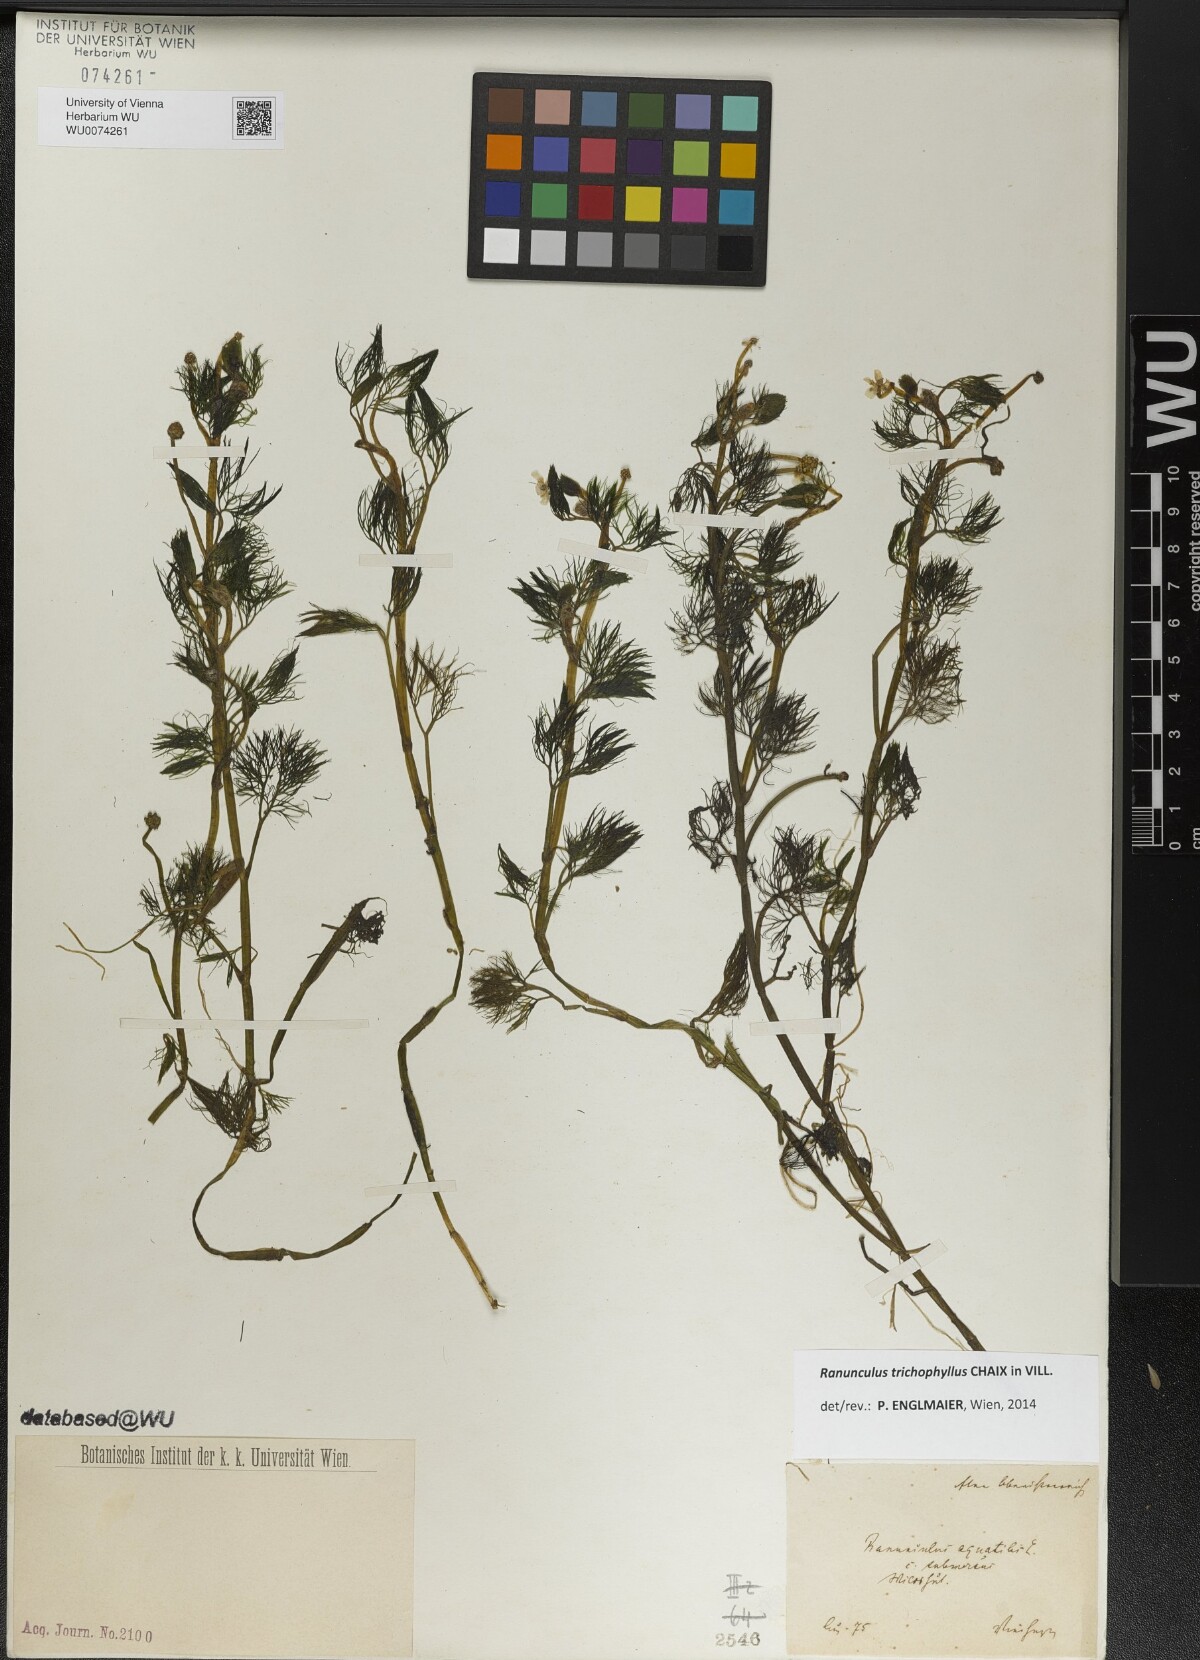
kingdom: Plantae
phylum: Tracheophyta
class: Magnoliopsida
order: Ranunculales
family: Ranunculaceae
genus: Ranunculus
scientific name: Ranunculus trichophyllus
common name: Thread-leaved water-crowfoot
